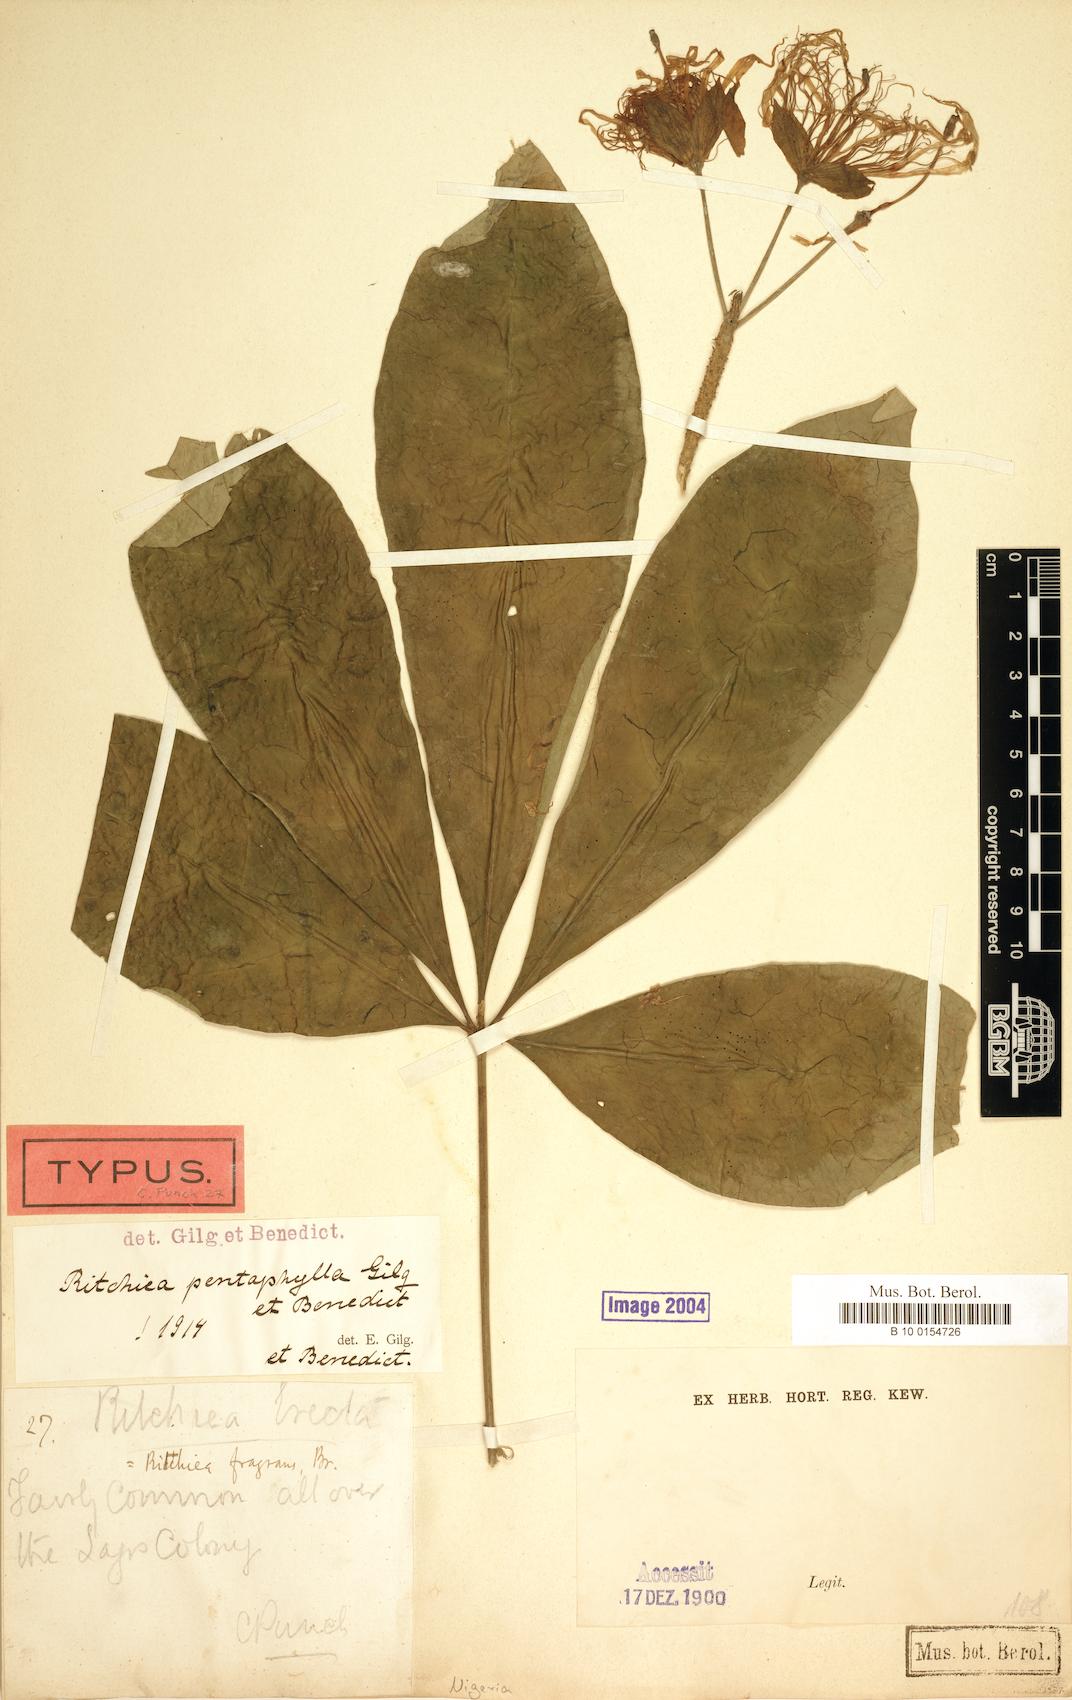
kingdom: Plantae
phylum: Tracheophyta
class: Magnoliopsida
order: Brassicales
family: Capparaceae
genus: Ritchiea
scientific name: Ritchiea erecta
